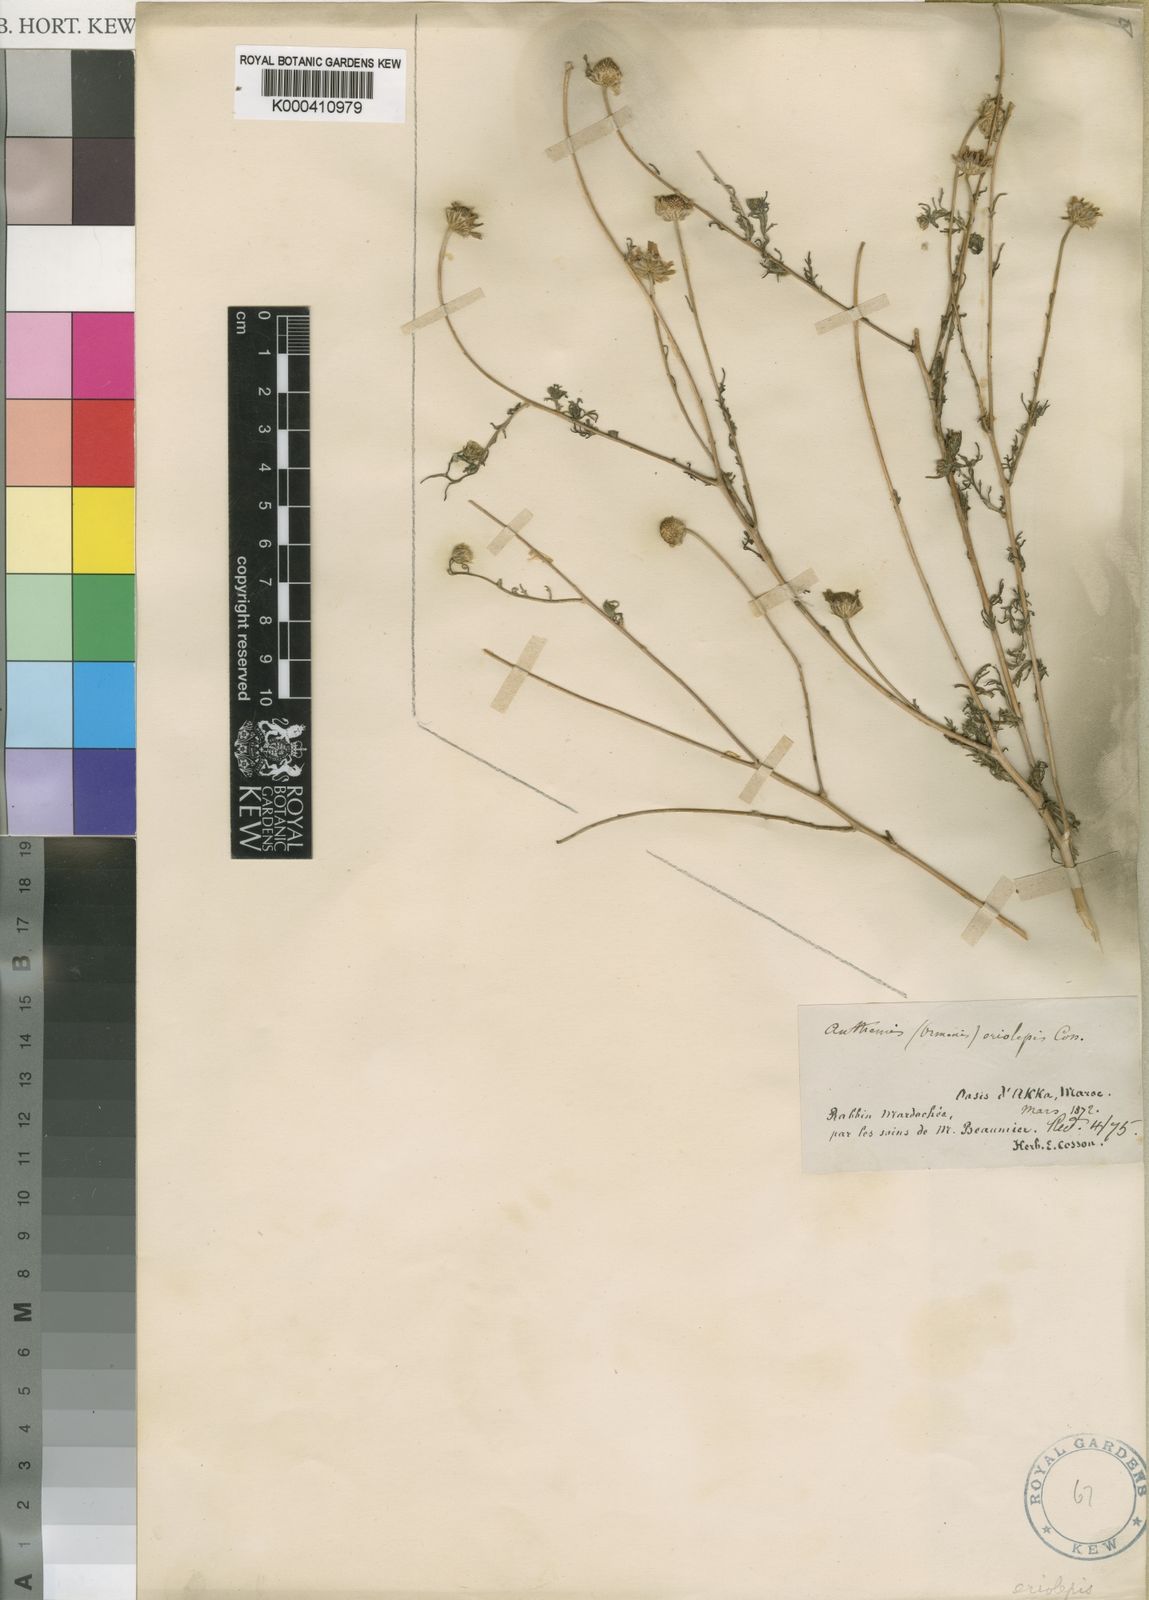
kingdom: Plantae
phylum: Tracheophyta
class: Magnoliopsida
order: Asterales
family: Asteraceae
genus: Chamaemelum
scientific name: Chamaemelum
